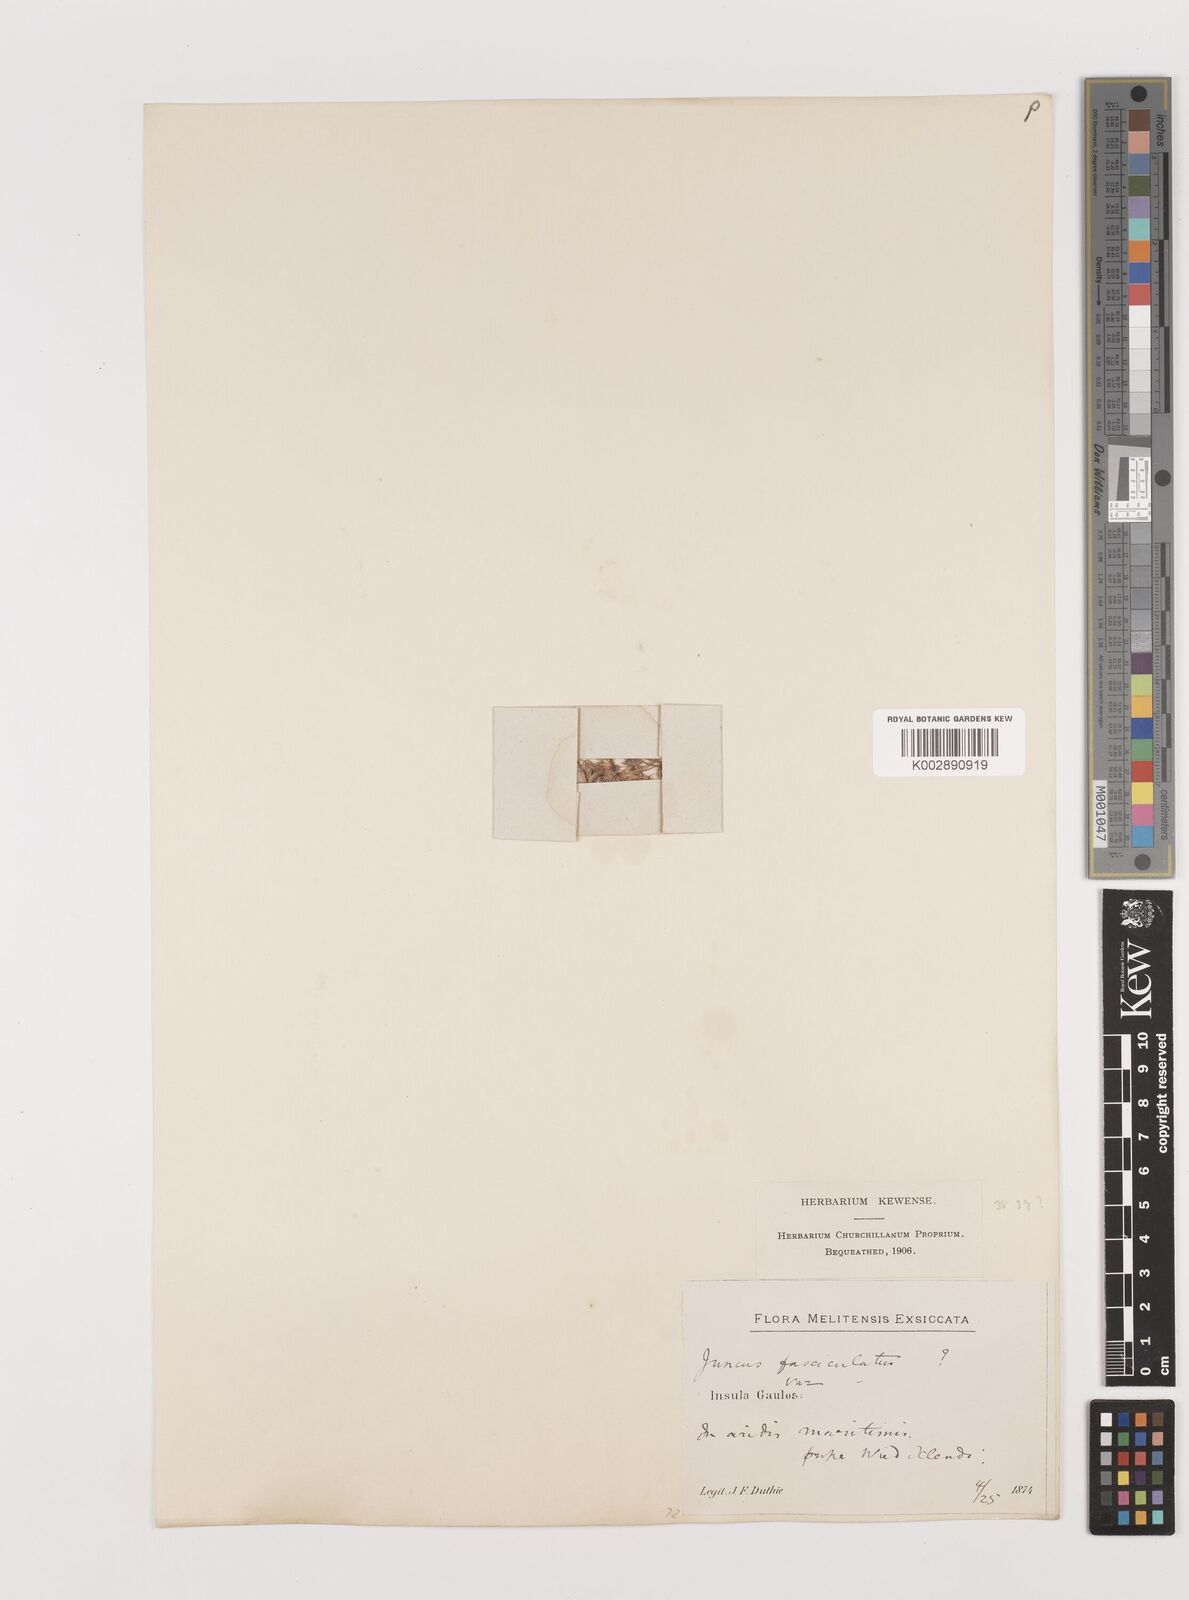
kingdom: Plantae
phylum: Tracheophyta
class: Liliopsida
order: Poales
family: Juncaceae
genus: Juncus
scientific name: Juncus
